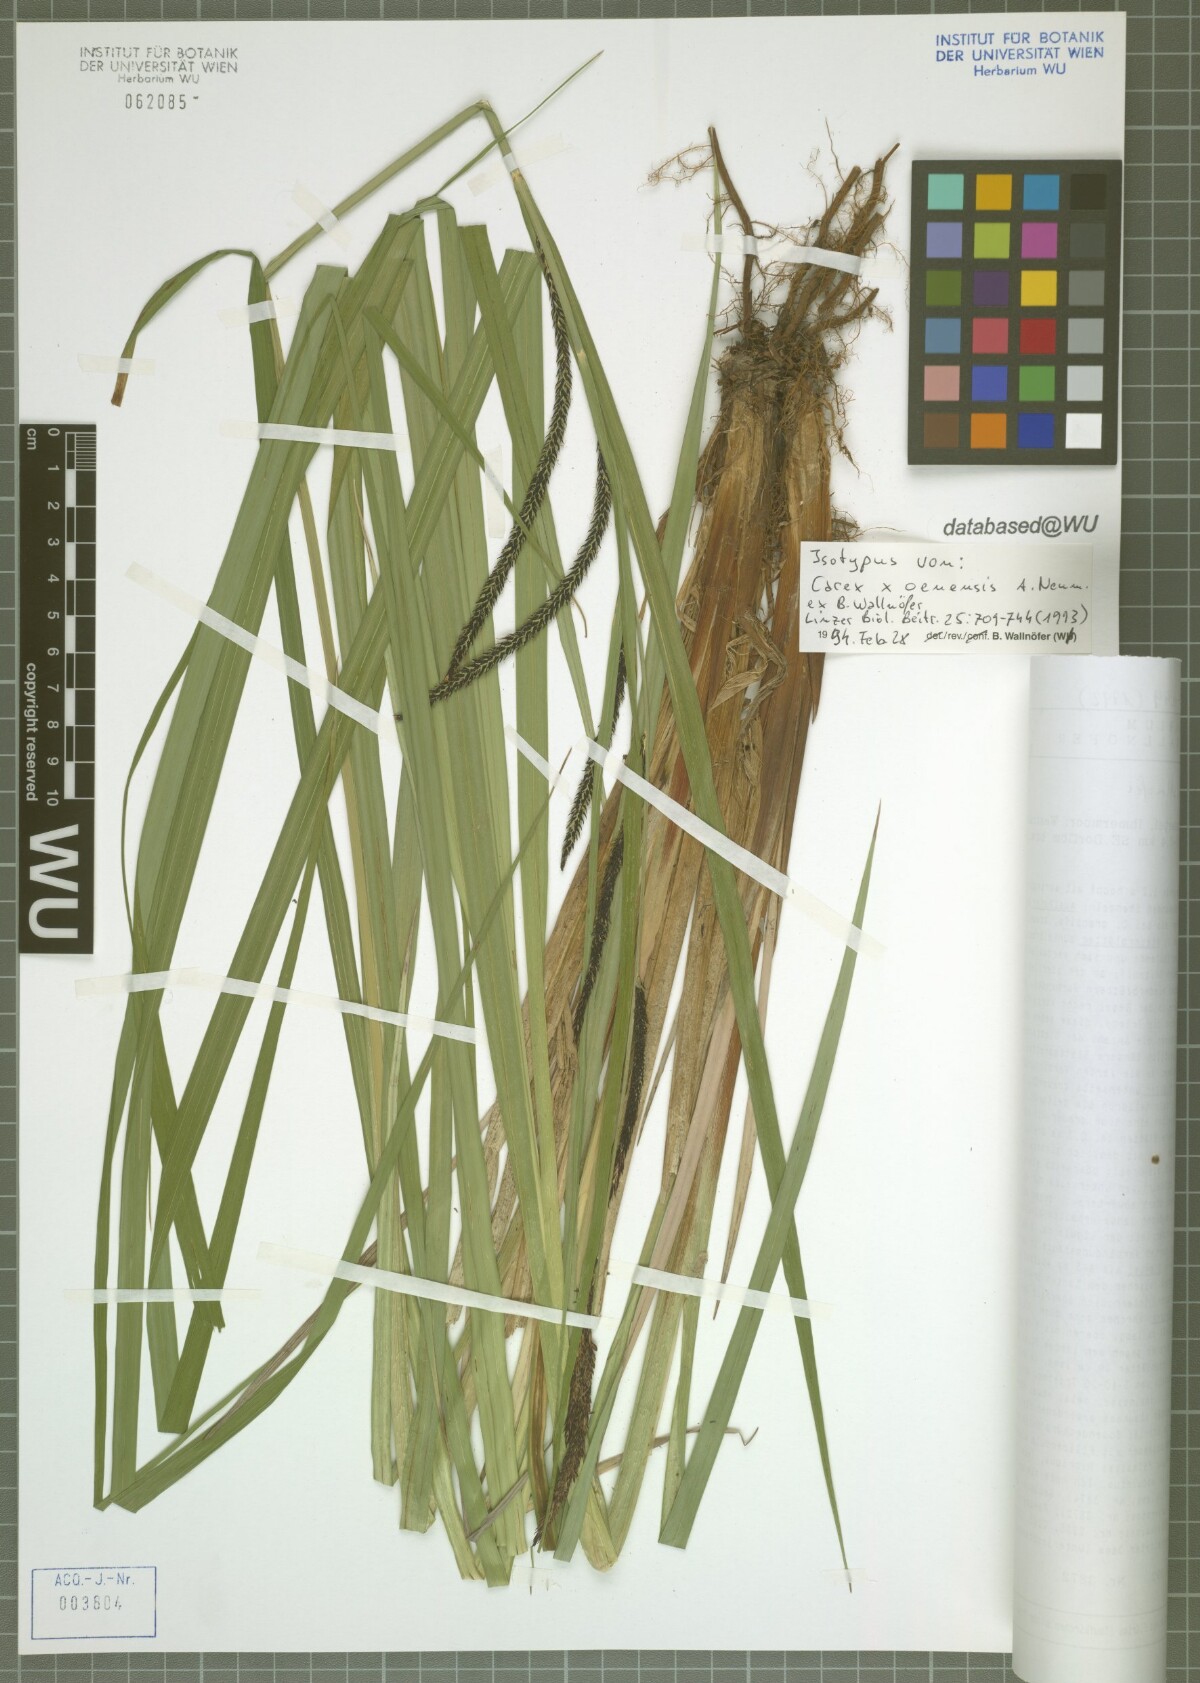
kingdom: Plantae
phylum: Tracheophyta
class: Liliopsida
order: Poales
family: Cyperaceae
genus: Carex
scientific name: Carex oenensis
